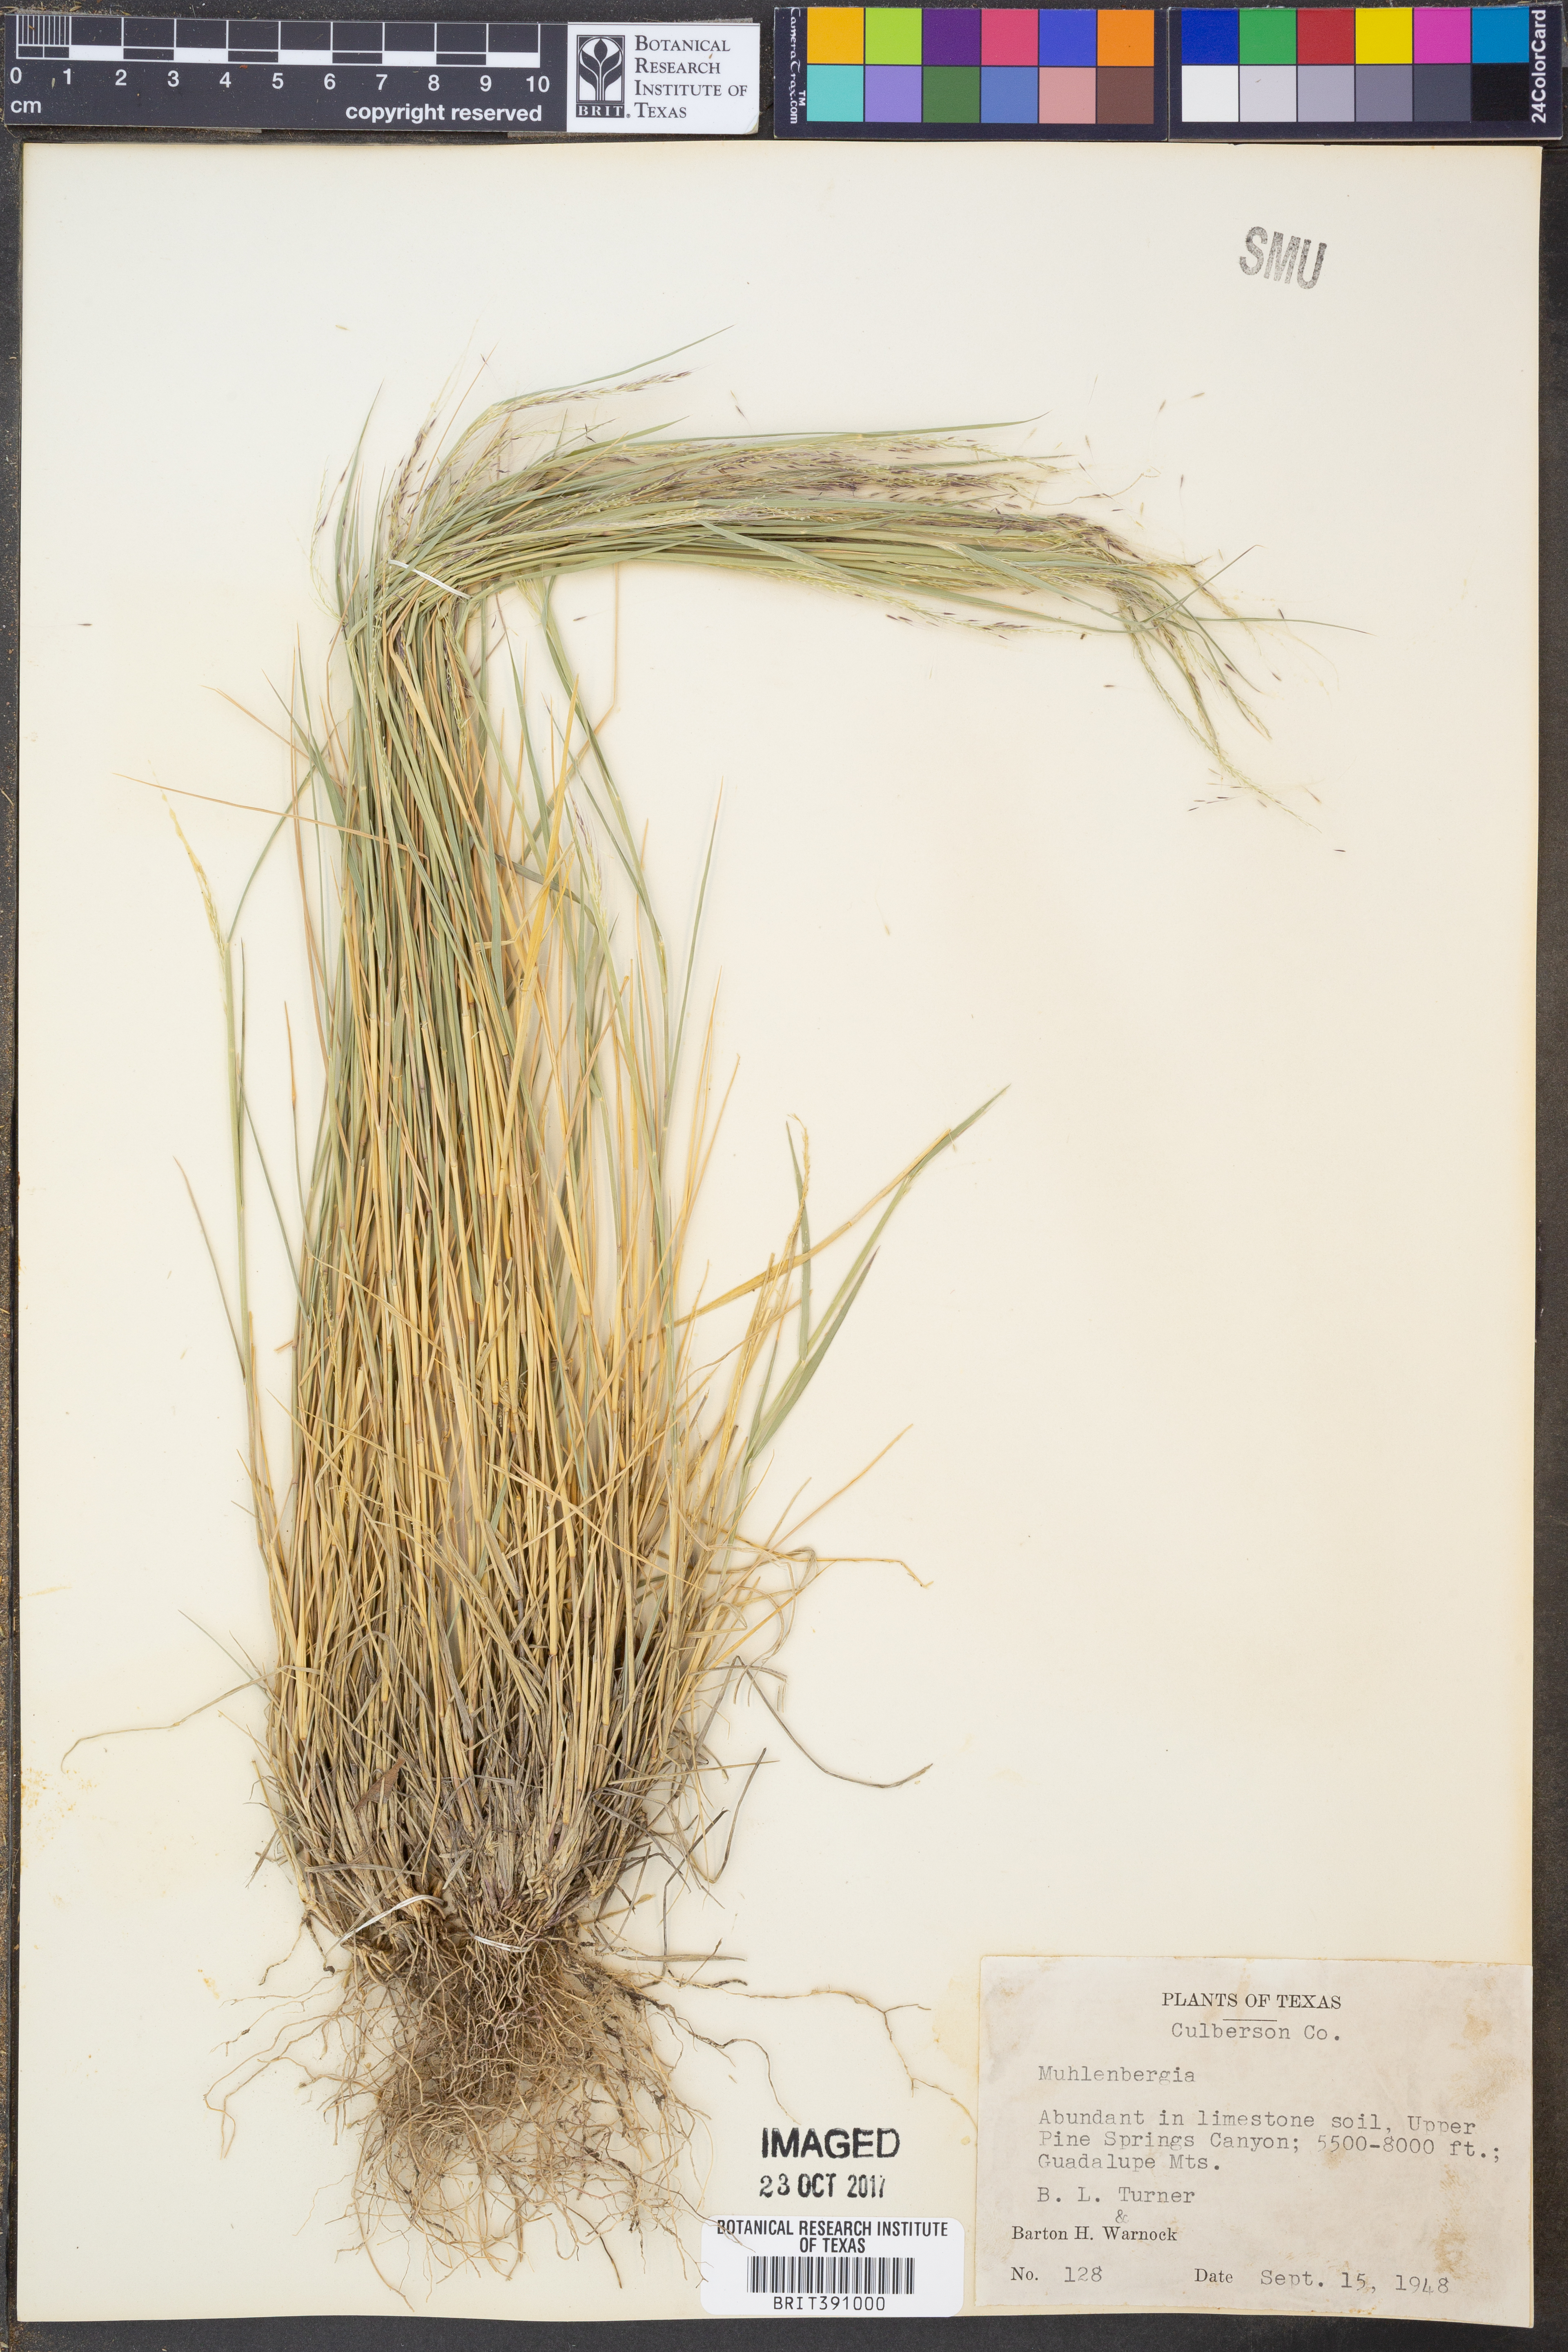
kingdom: Plantae
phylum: Tracheophyta
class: Liliopsida
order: Poales
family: Poaceae
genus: Muhlenbergia
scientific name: Muhlenbergia
